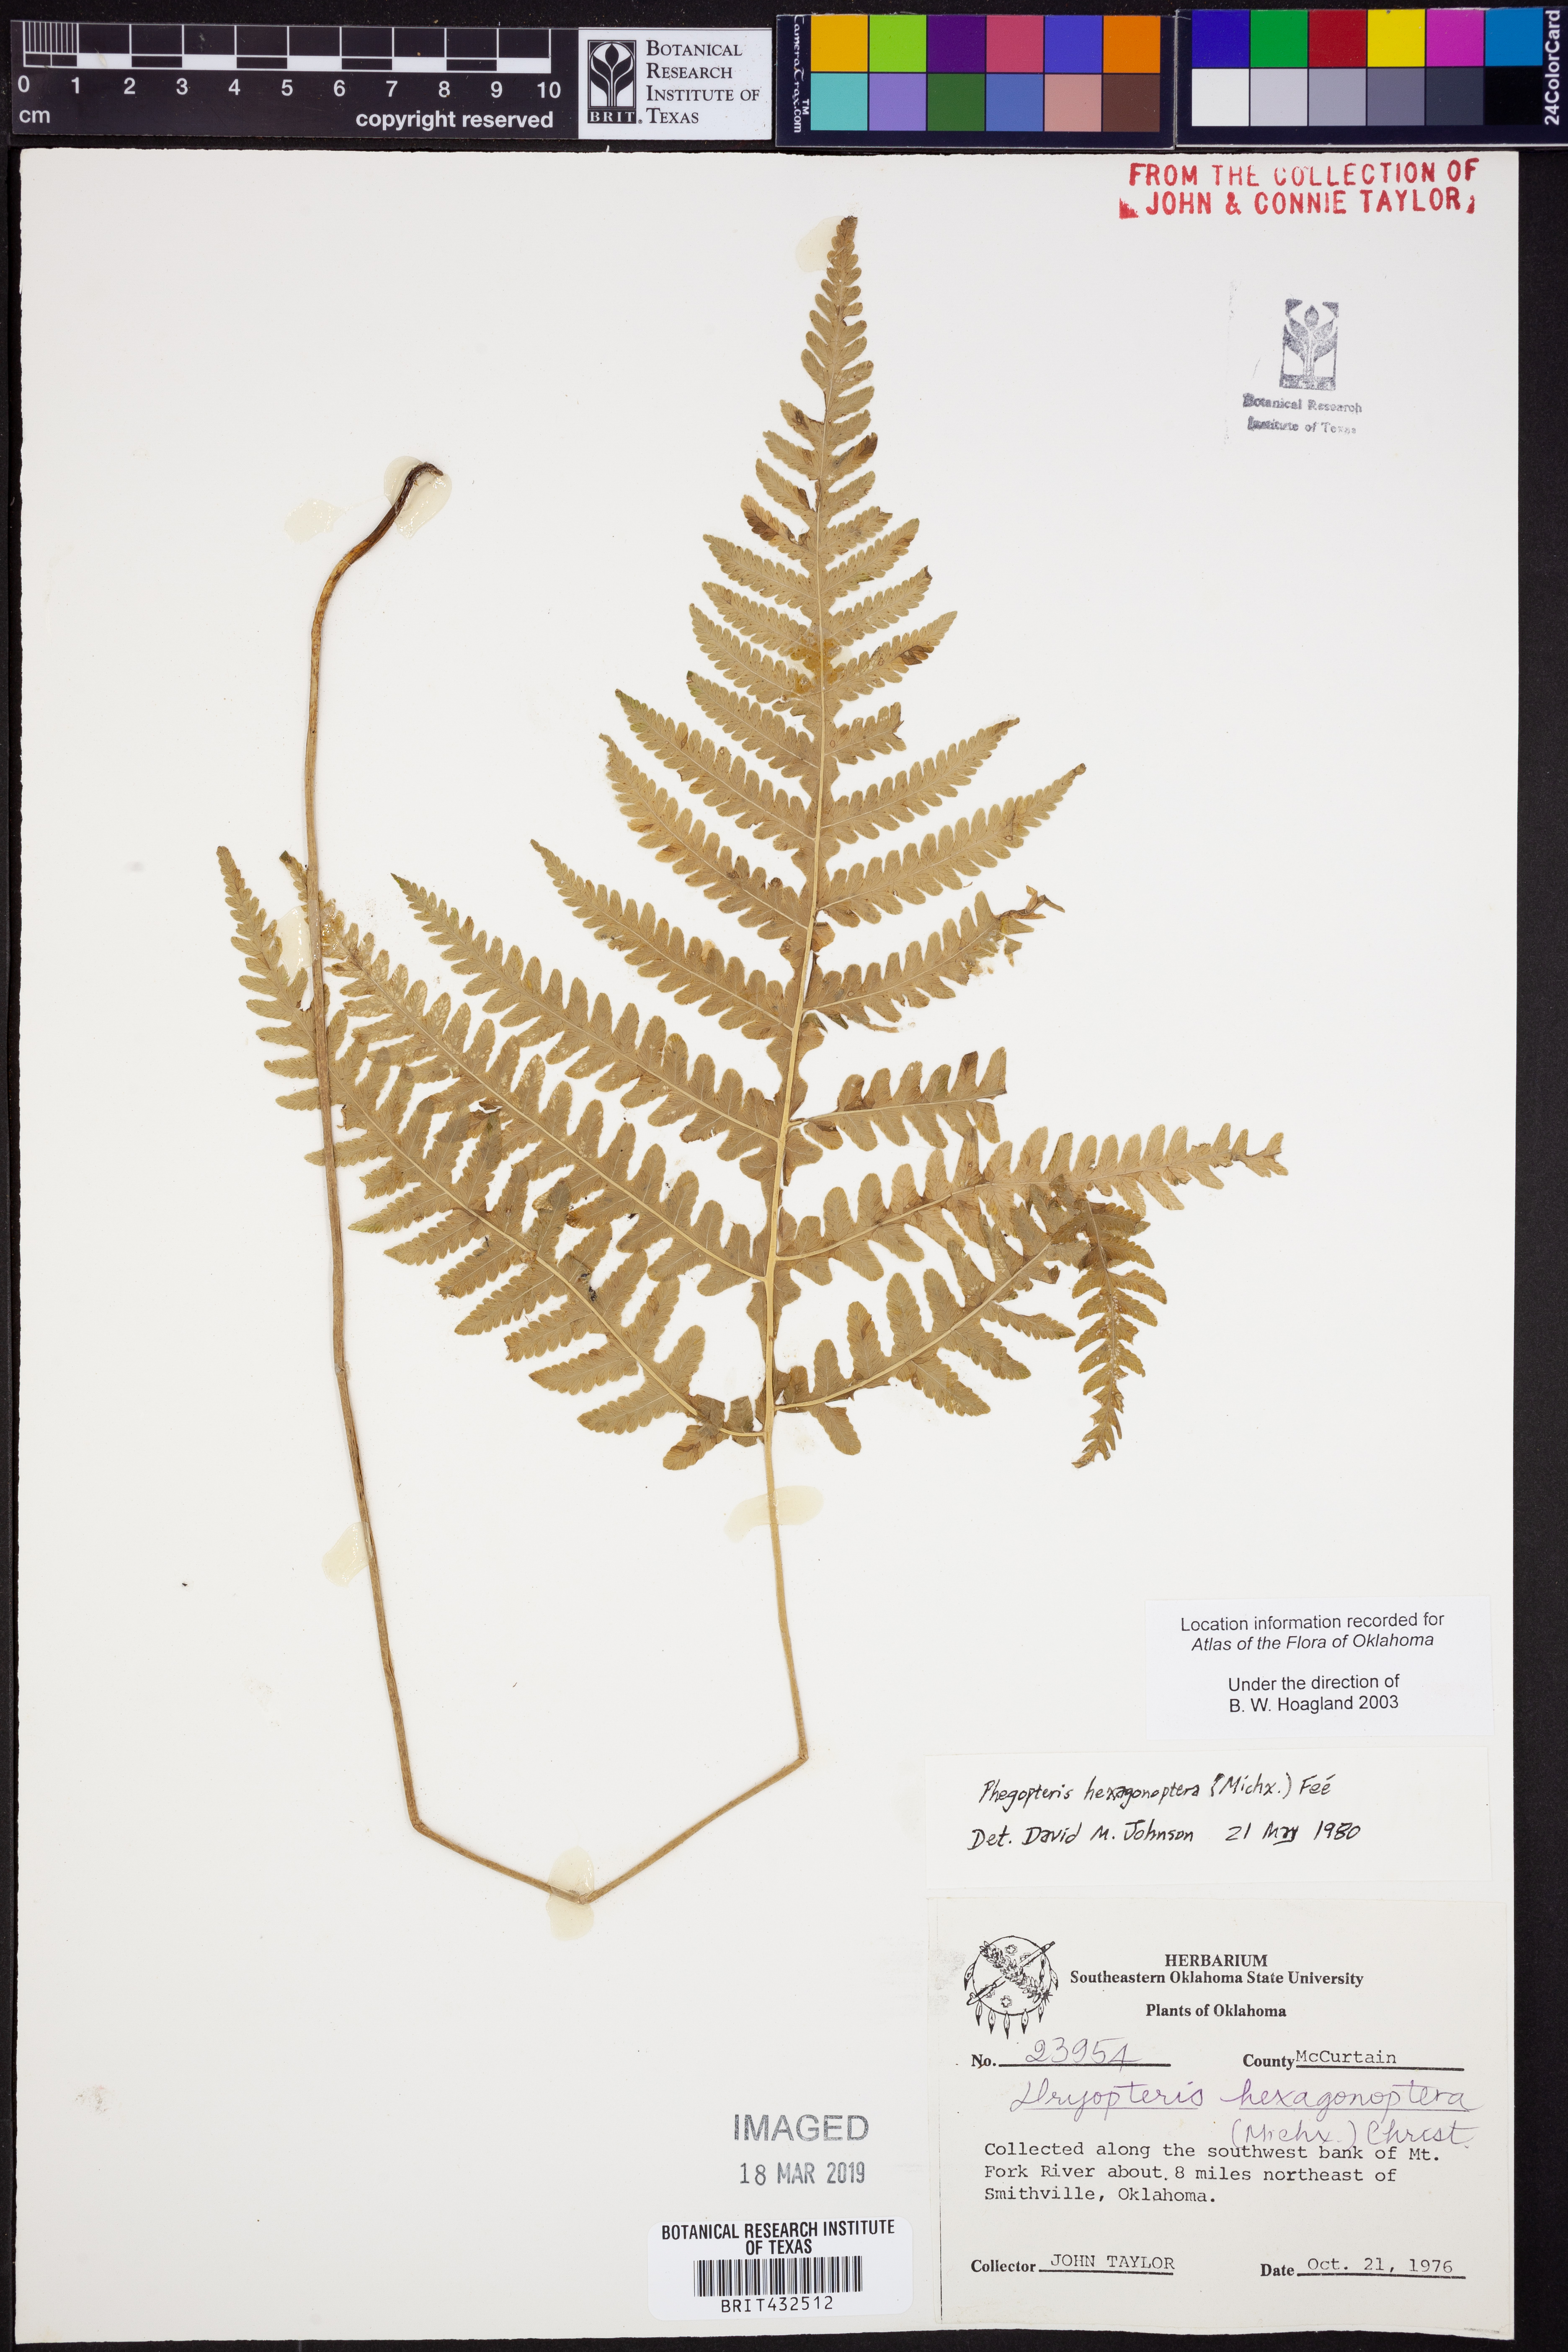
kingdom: Plantae
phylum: Tracheophyta
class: Polypodiopsida
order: Polypodiales
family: Thelypteridaceae
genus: Phegopteris
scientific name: Phegopteris hexagonoptera
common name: Broad beech fern
